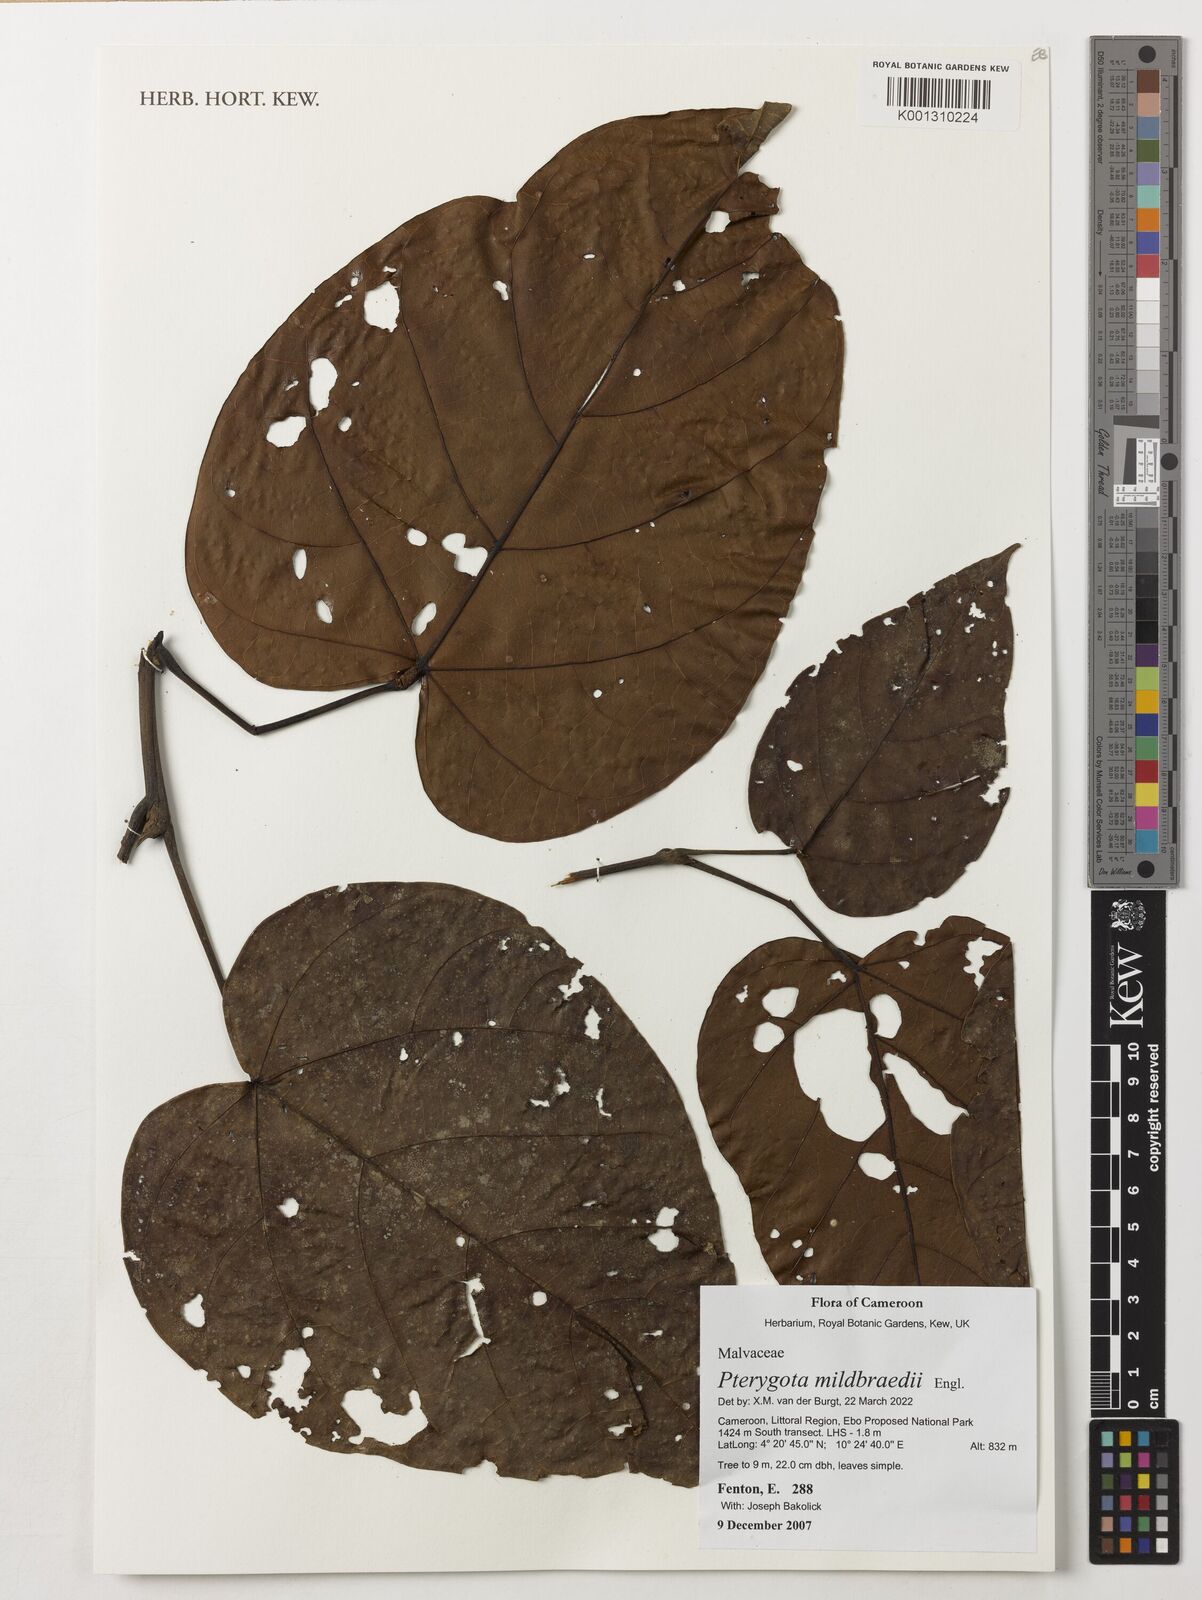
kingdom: Plantae
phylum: Tracheophyta
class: Magnoliopsida
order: Malvales
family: Malvaceae
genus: Pterygota
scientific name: Pterygota mildbraedii
